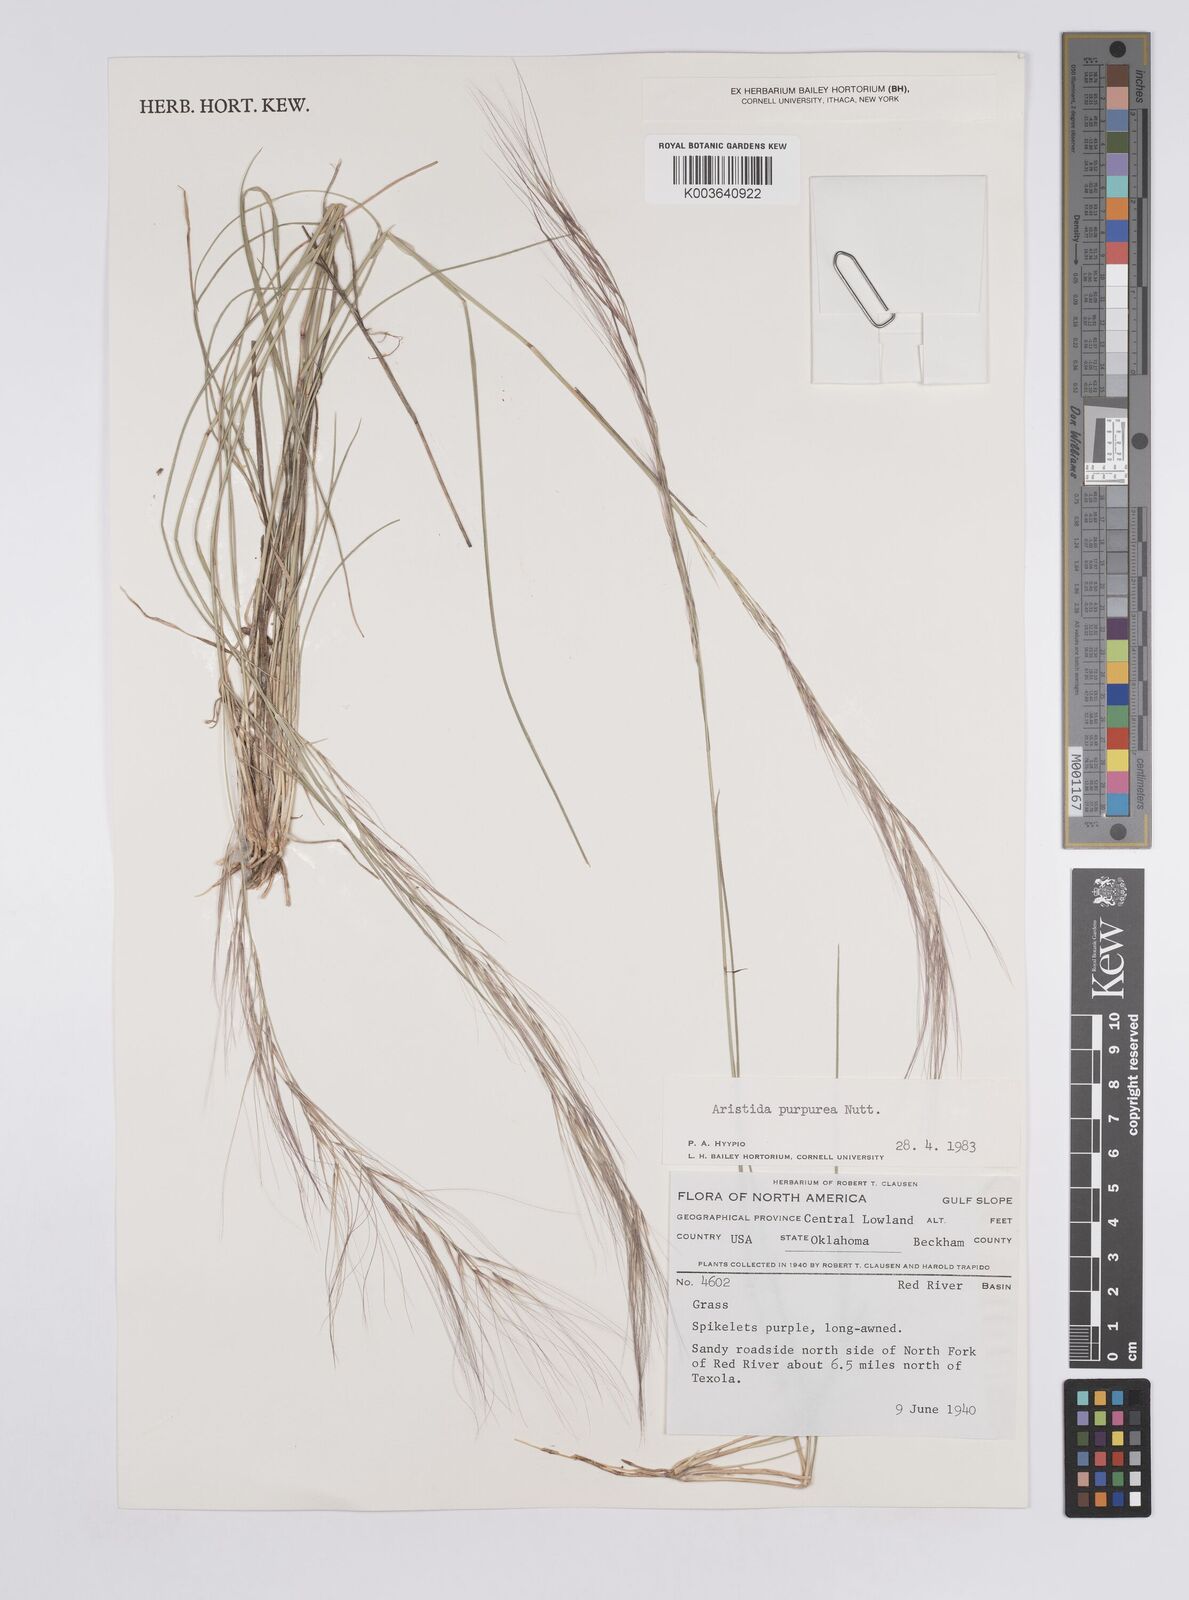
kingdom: Plantae
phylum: Tracheophyta
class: Liliopsida
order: Poales
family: Poaceae
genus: Aristida
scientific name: Aristida purpurea
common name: Purple threeawn
